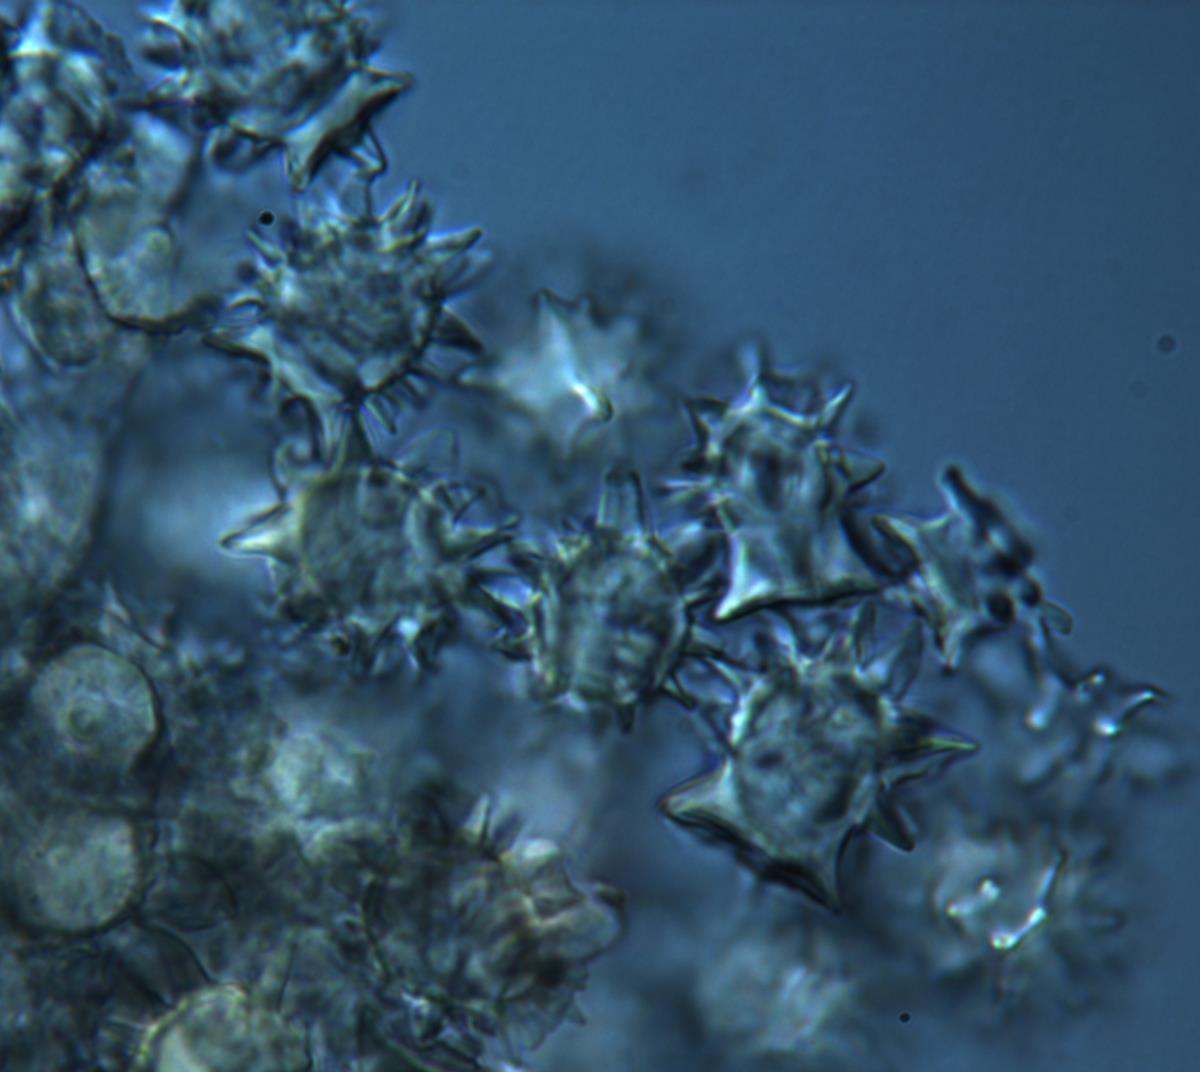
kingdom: Fungi
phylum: Basidiomycota
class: Agaricomycetes
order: Agaricales
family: Stephanosporaceae
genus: Stephanospora
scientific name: Stephanospora aorangi
